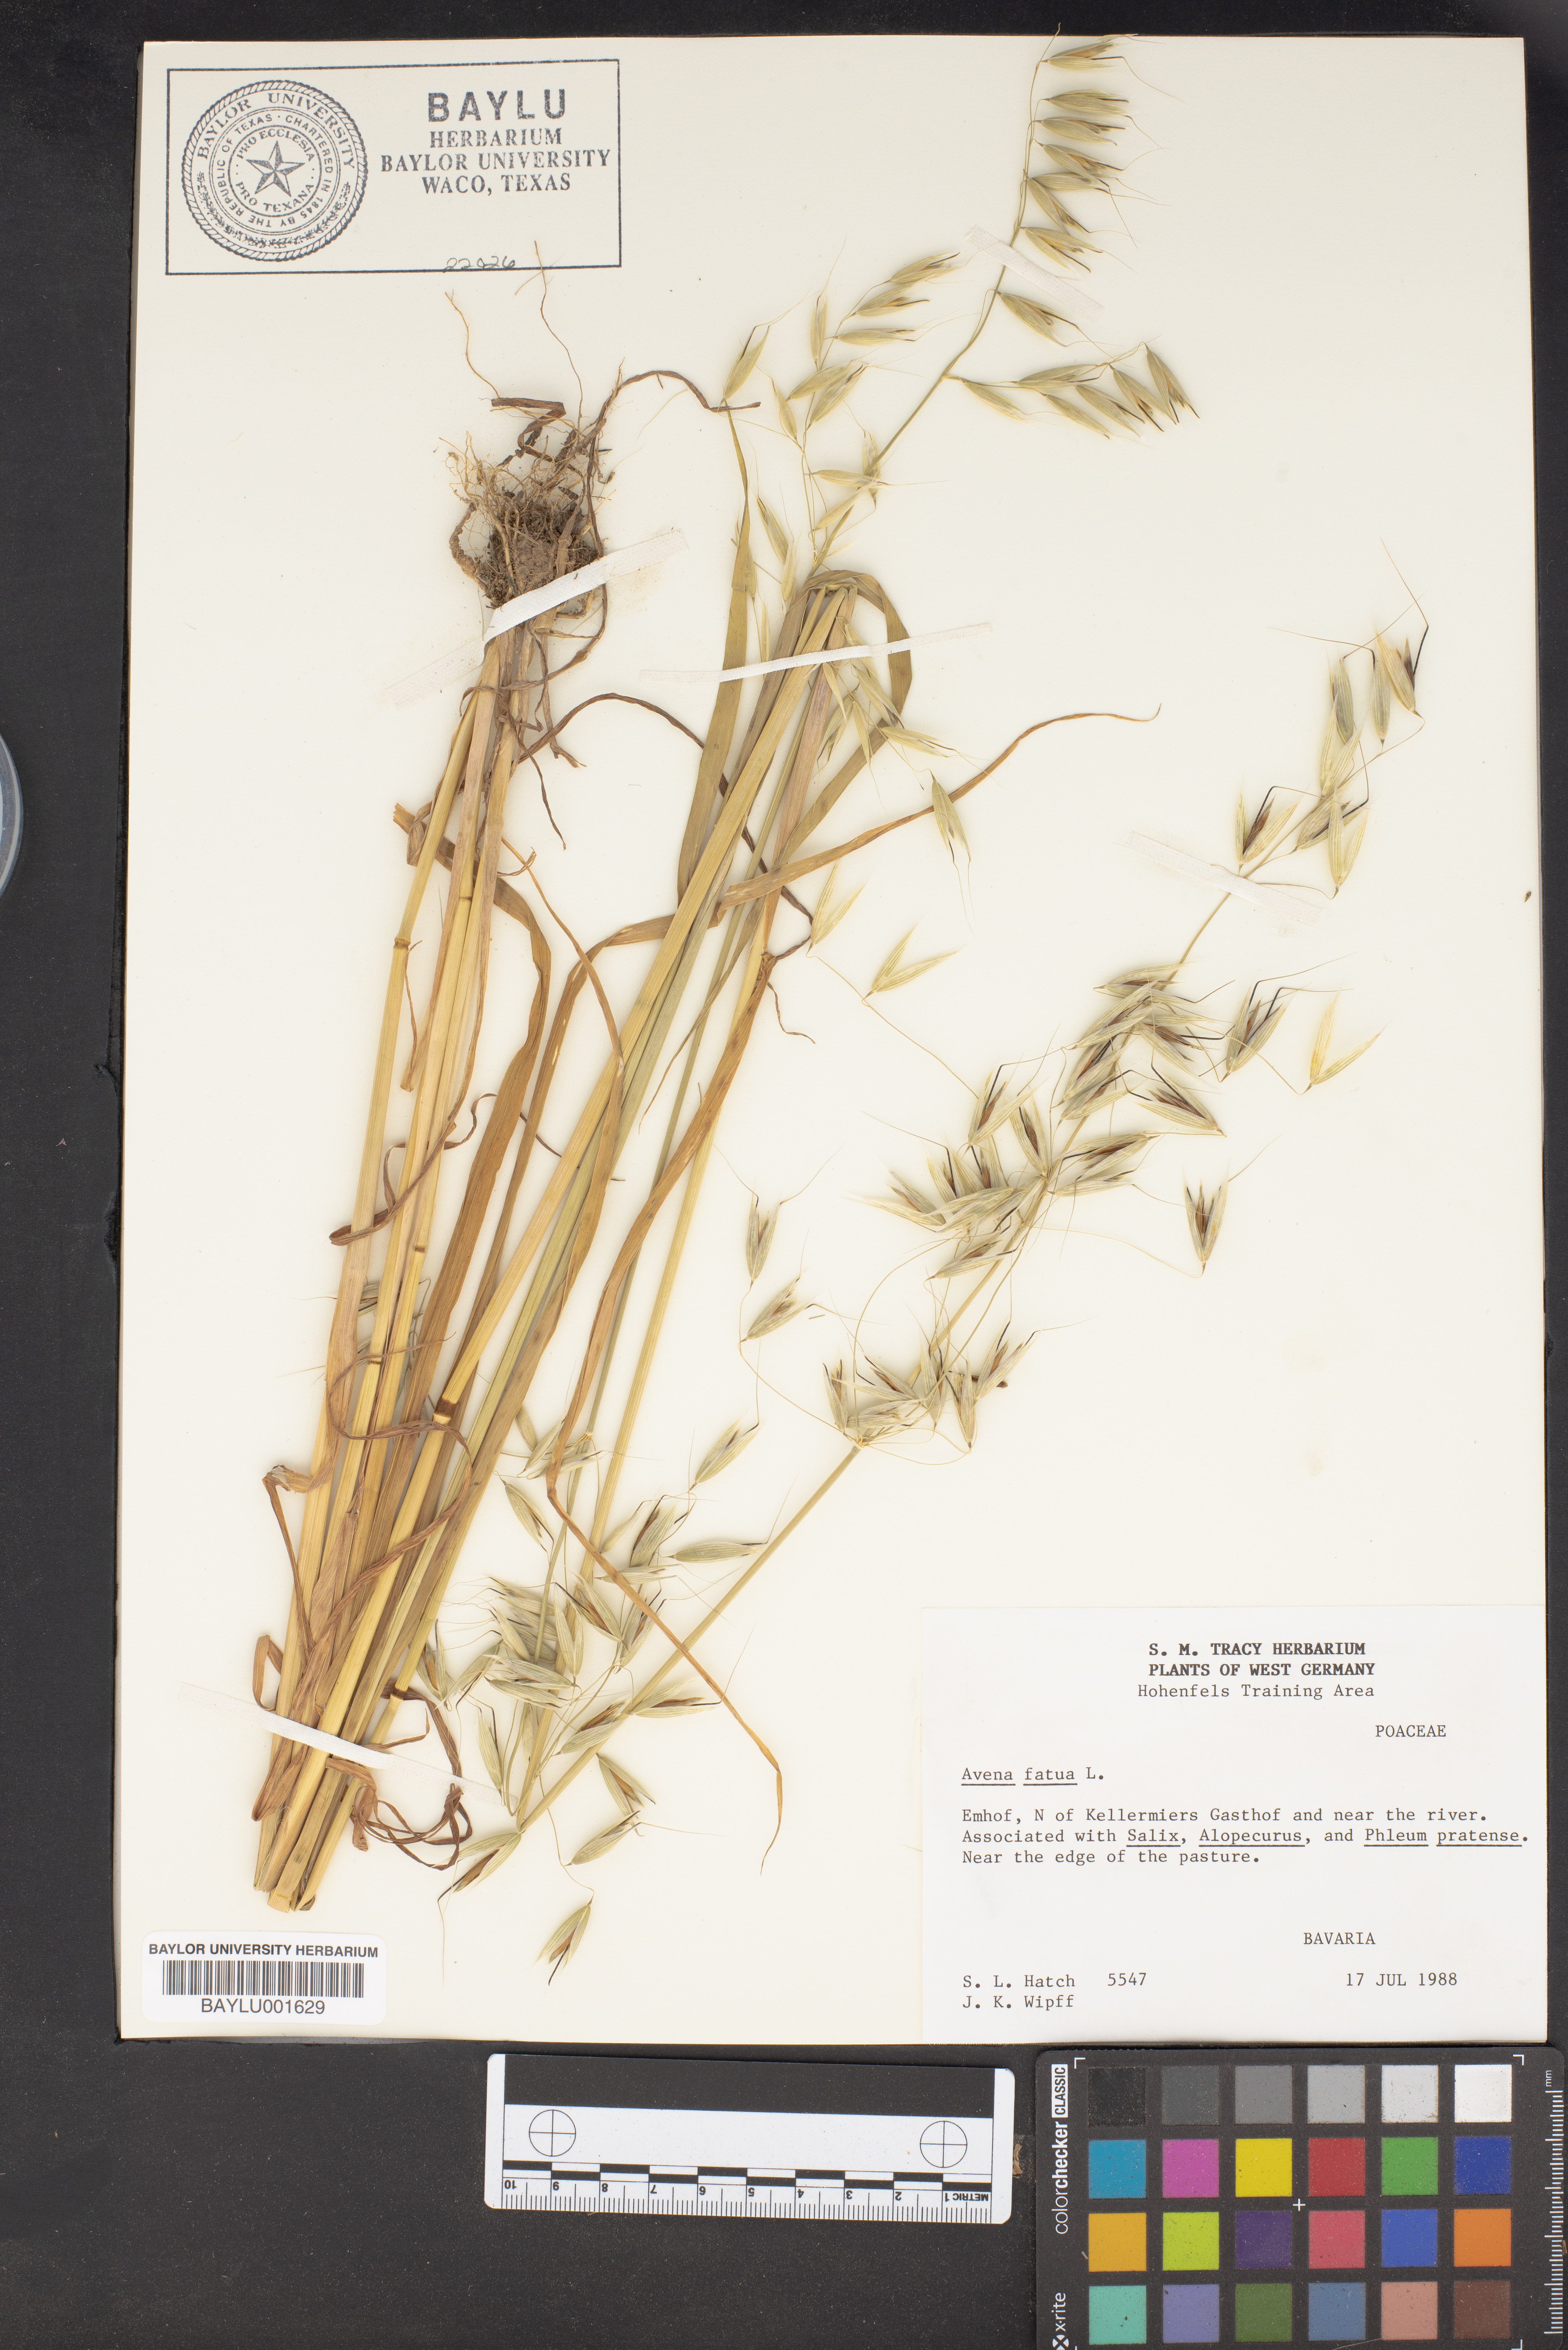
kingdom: Plantae
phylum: Tracheophyta
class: Liliopsida
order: Poales
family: Poaceae
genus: Avena
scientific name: Avena fatua
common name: Wild oat
